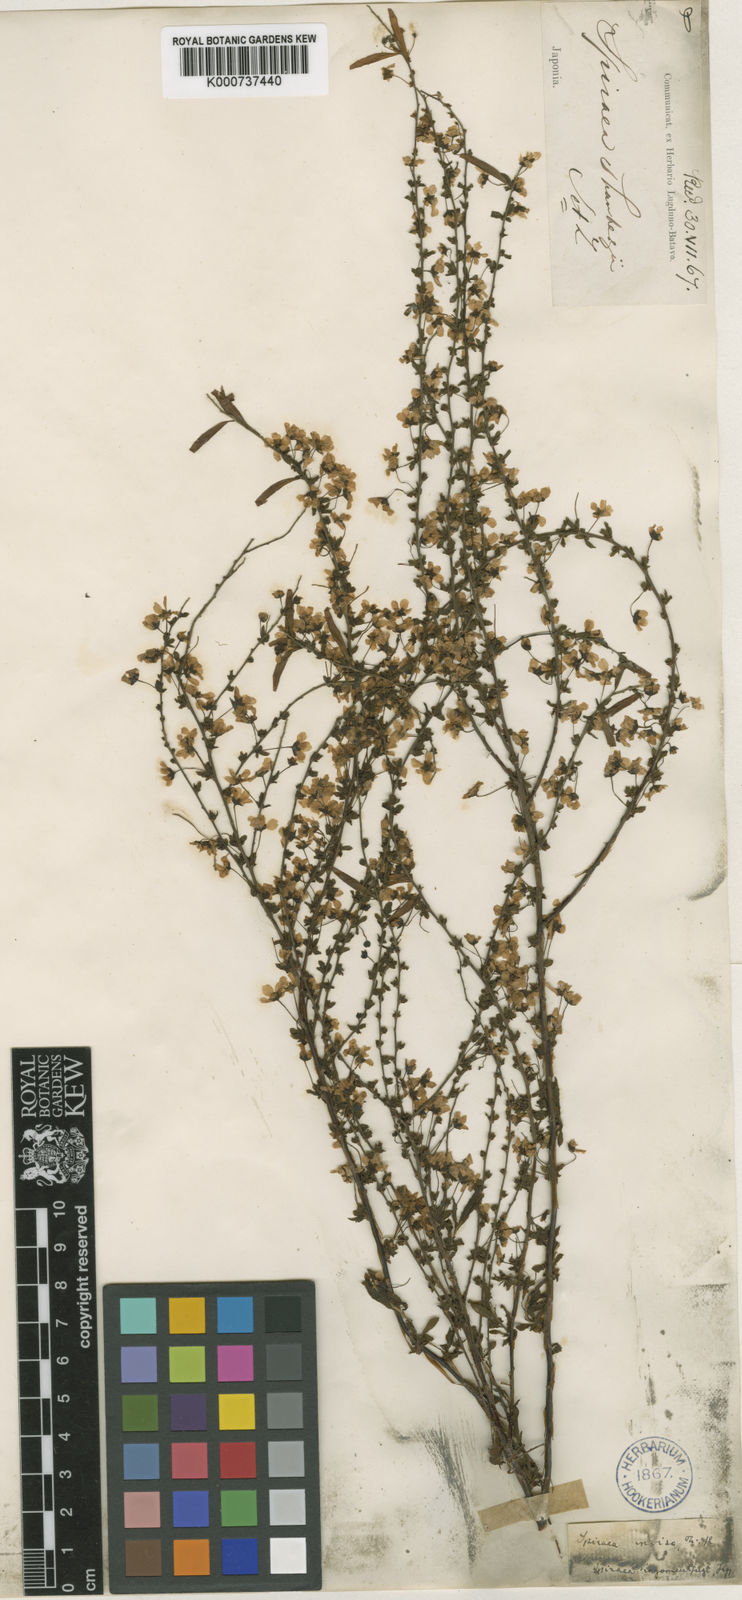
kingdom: Plantae
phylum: Tracheophyta
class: Magnoliopsida
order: Rosales
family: Rosaceae
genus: Spiraea
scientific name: Spiraea
